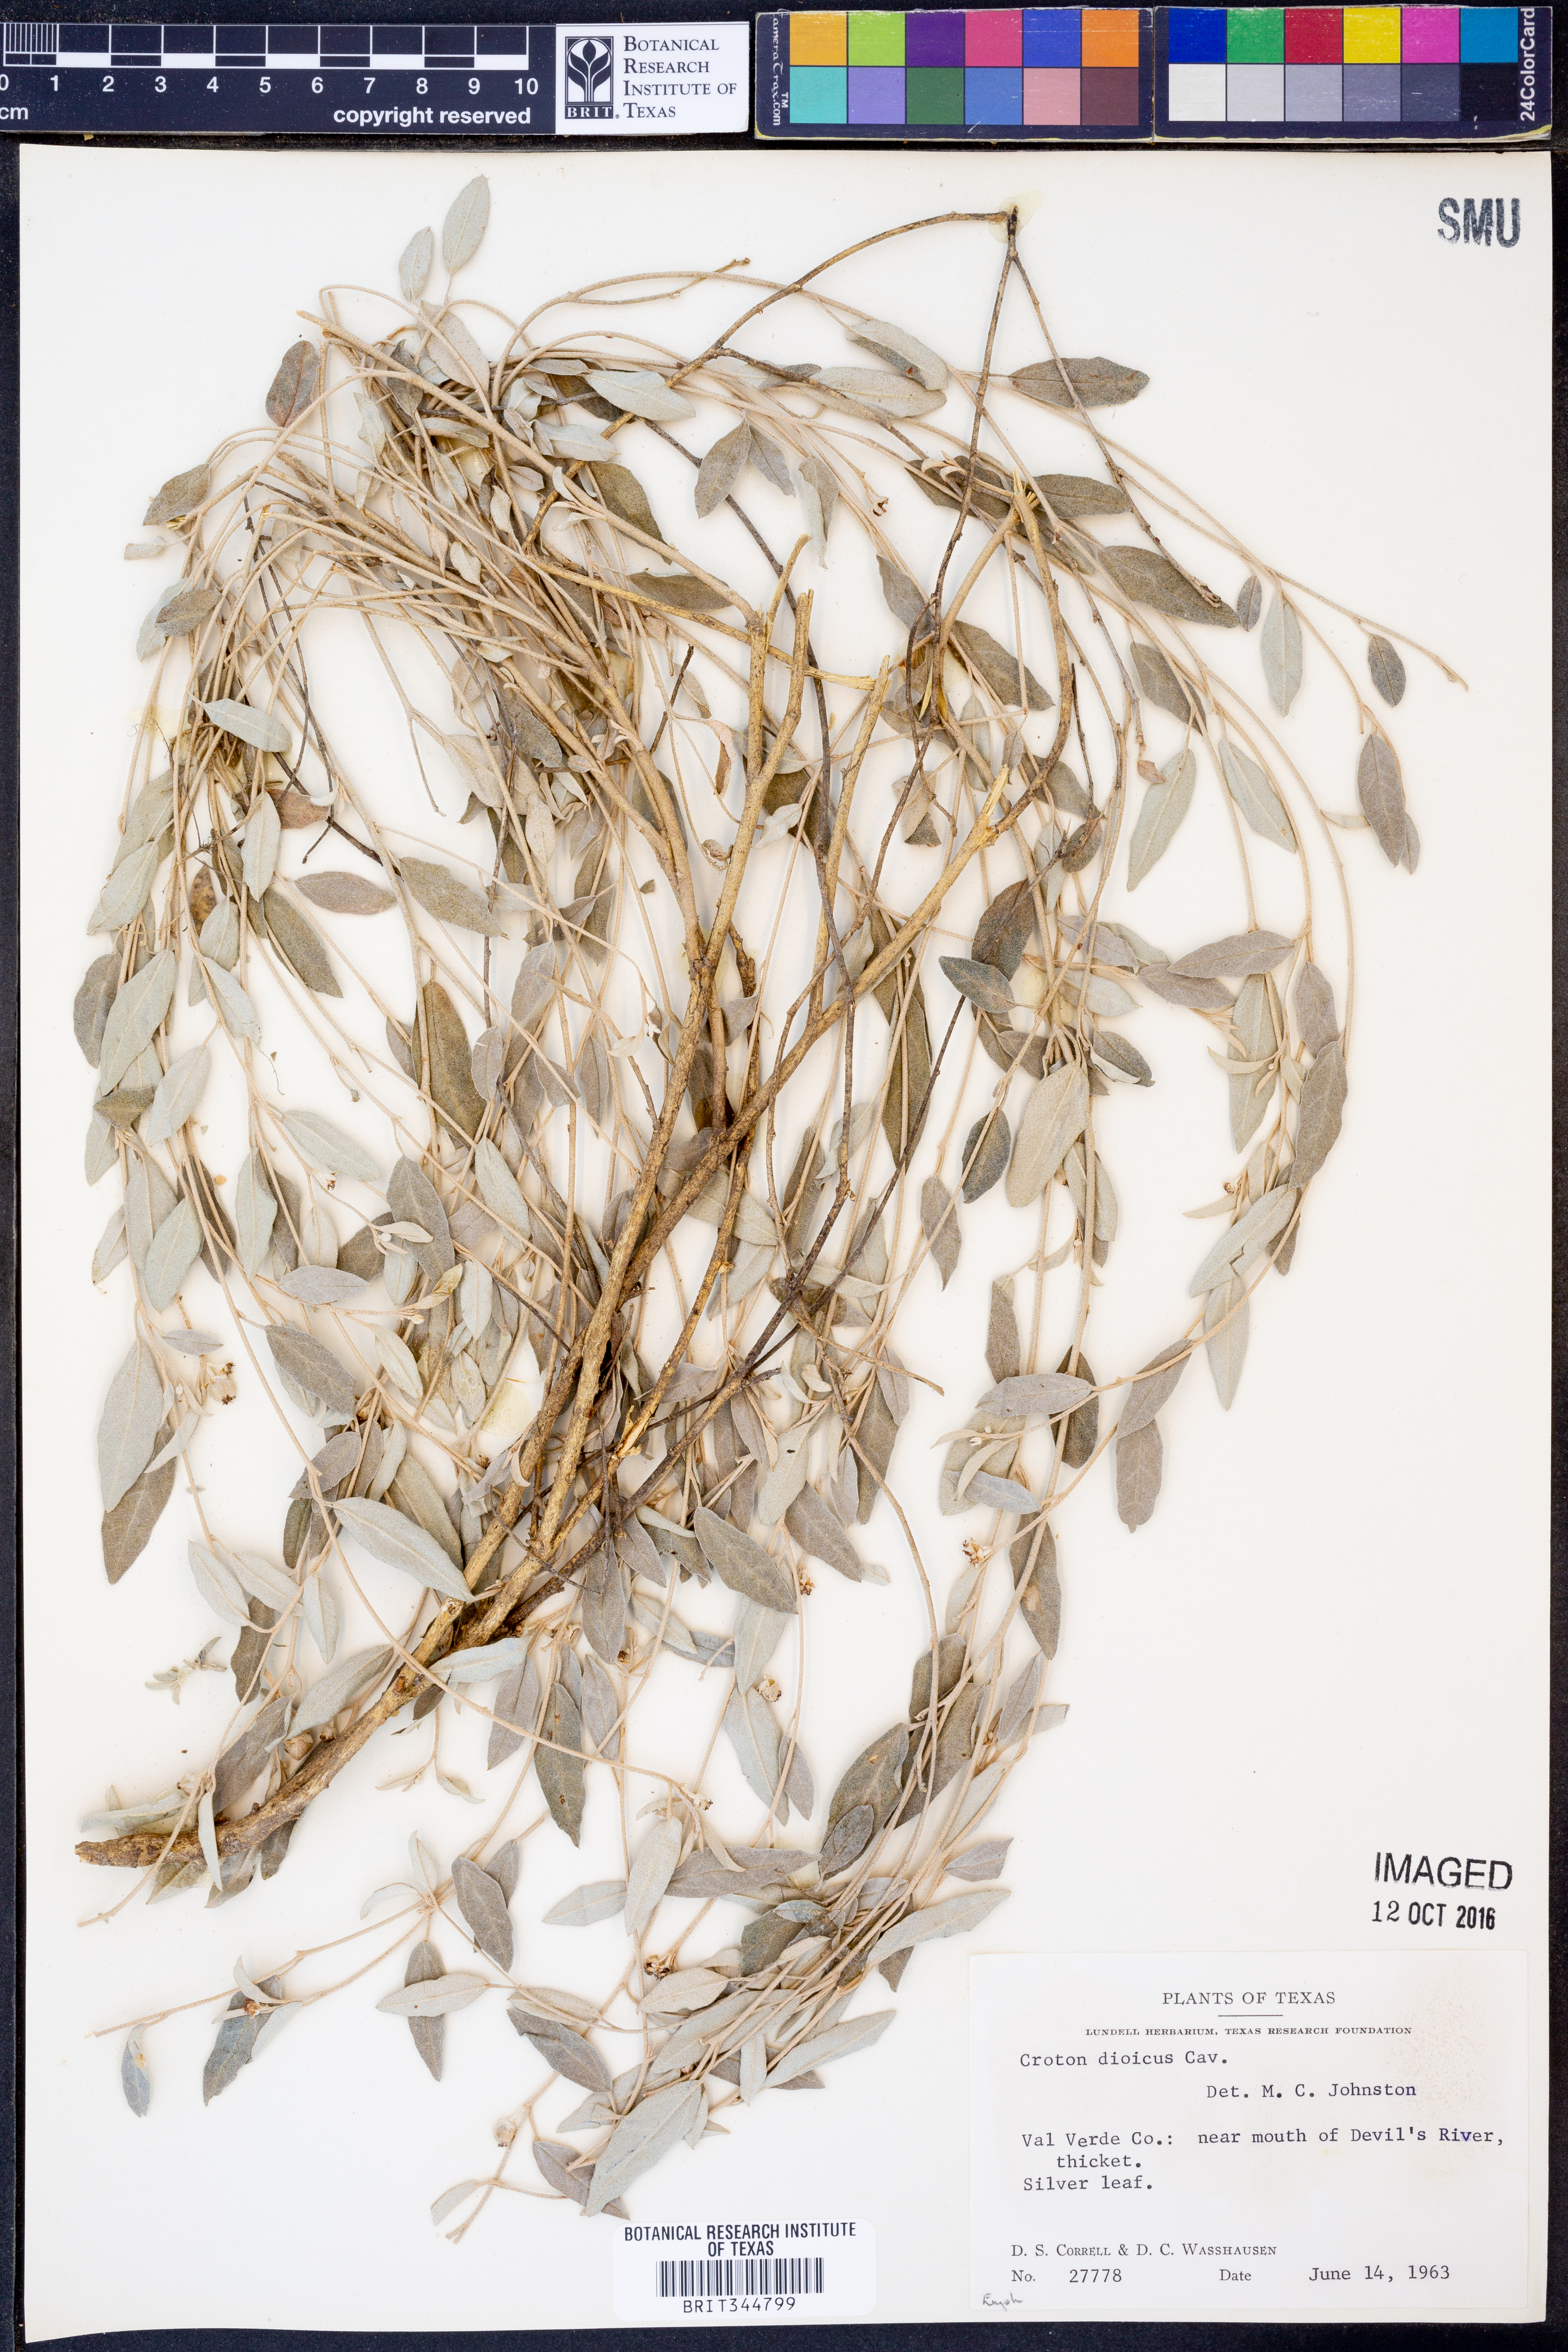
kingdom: Plantae
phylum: Tracheophyta
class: Magnoliopsida
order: Malpighiales
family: Euphorbiaceae
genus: Croton
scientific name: Croton dioicus
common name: Grassland croton
